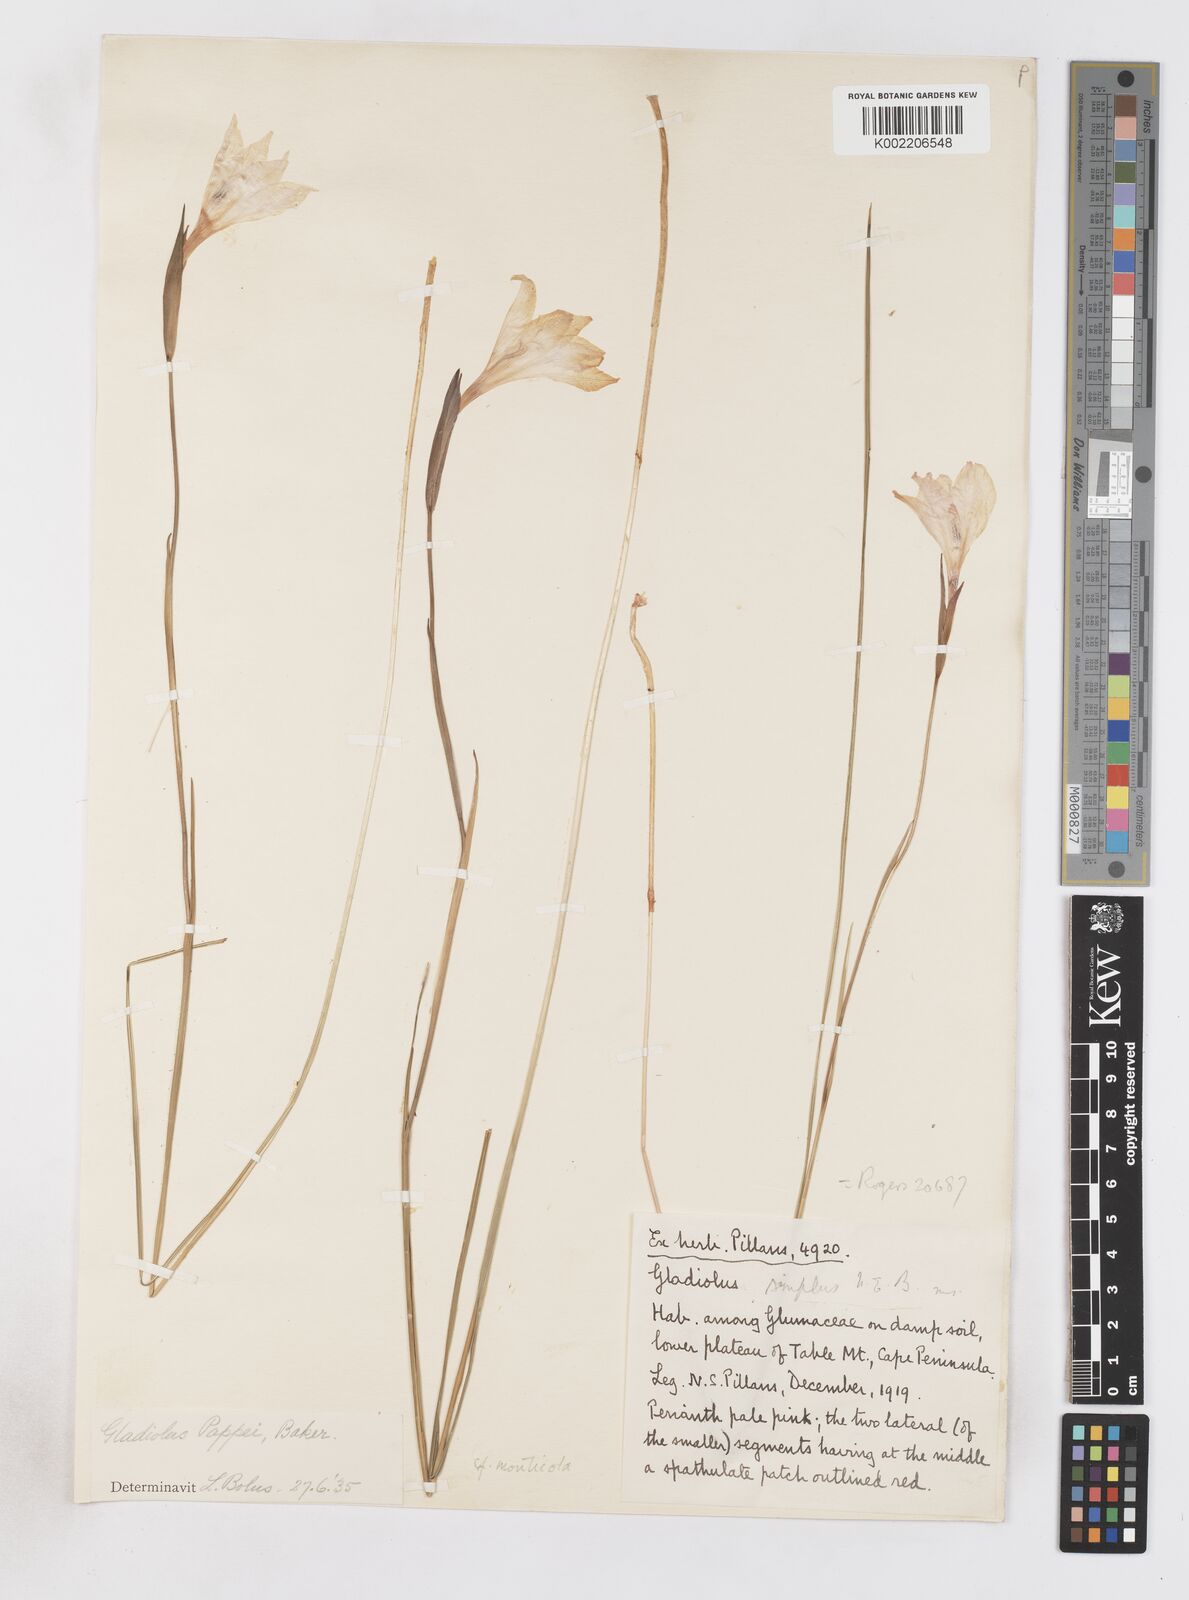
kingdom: Plantae
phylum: Tracheophyta
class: Liliopsida
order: Asparagales
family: Iridaceae
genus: Gladiolus
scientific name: Gladiolus pappei
